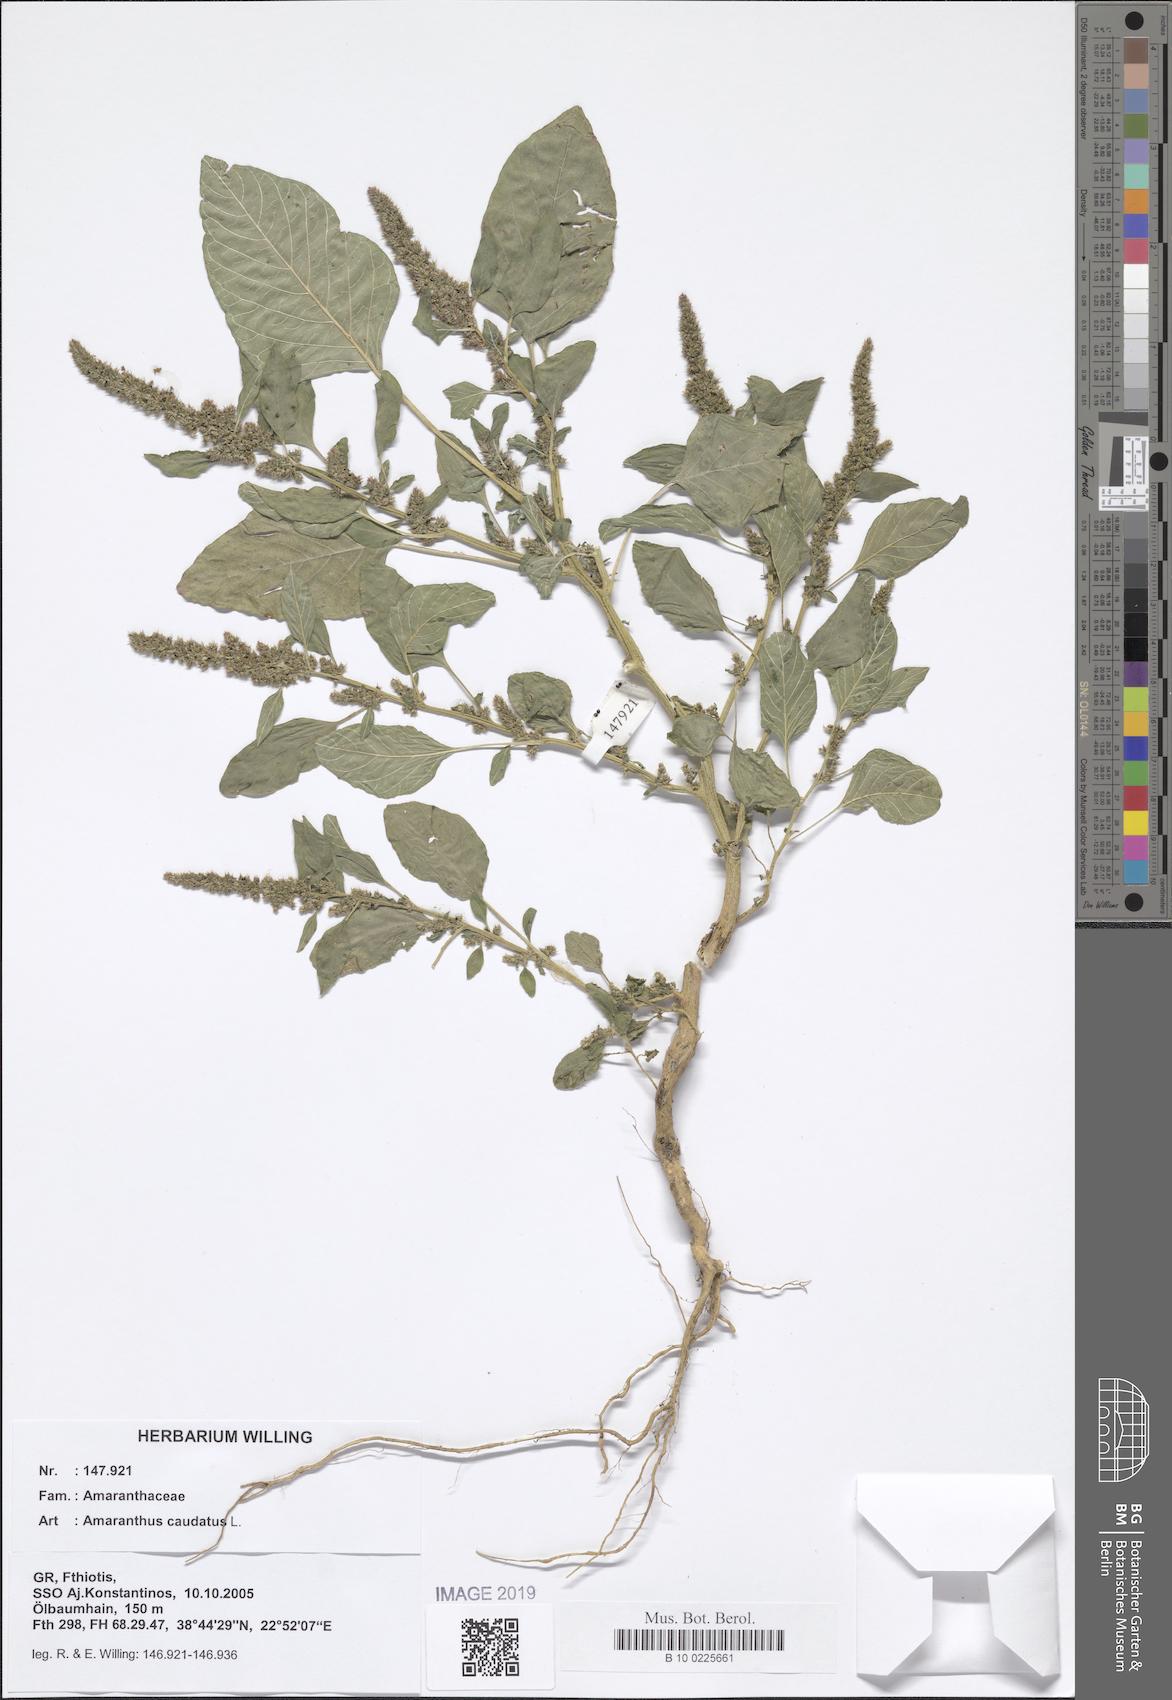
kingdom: Plantae
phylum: Tracheophyta
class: Magnoliopsida
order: Caryophyllales
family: Amaranthaceae
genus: Amaranthus
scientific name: Amaranthus caudatus
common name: Love-lies-bleeding
